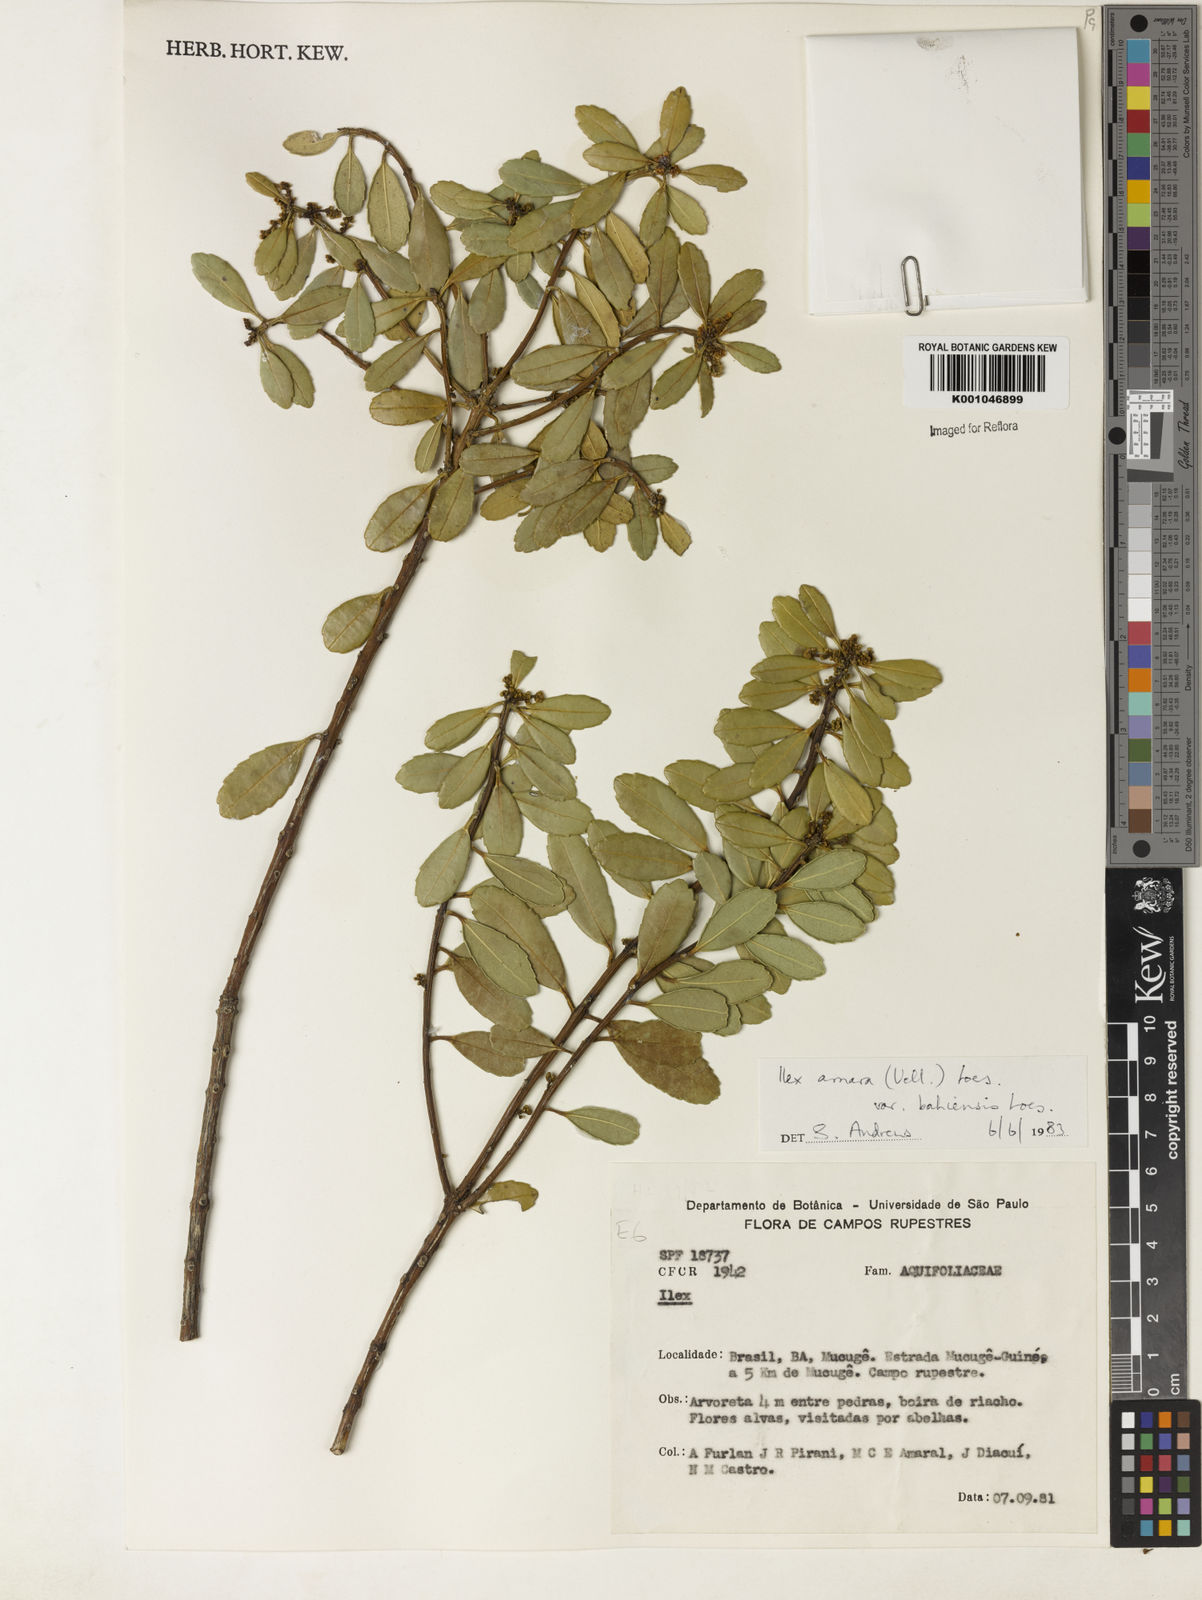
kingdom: Plantae
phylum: Tracheophyta
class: Magnoliopsida
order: Aquifoliales
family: Aquifoliaceae
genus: Ilex
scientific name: Ilex dumosa
